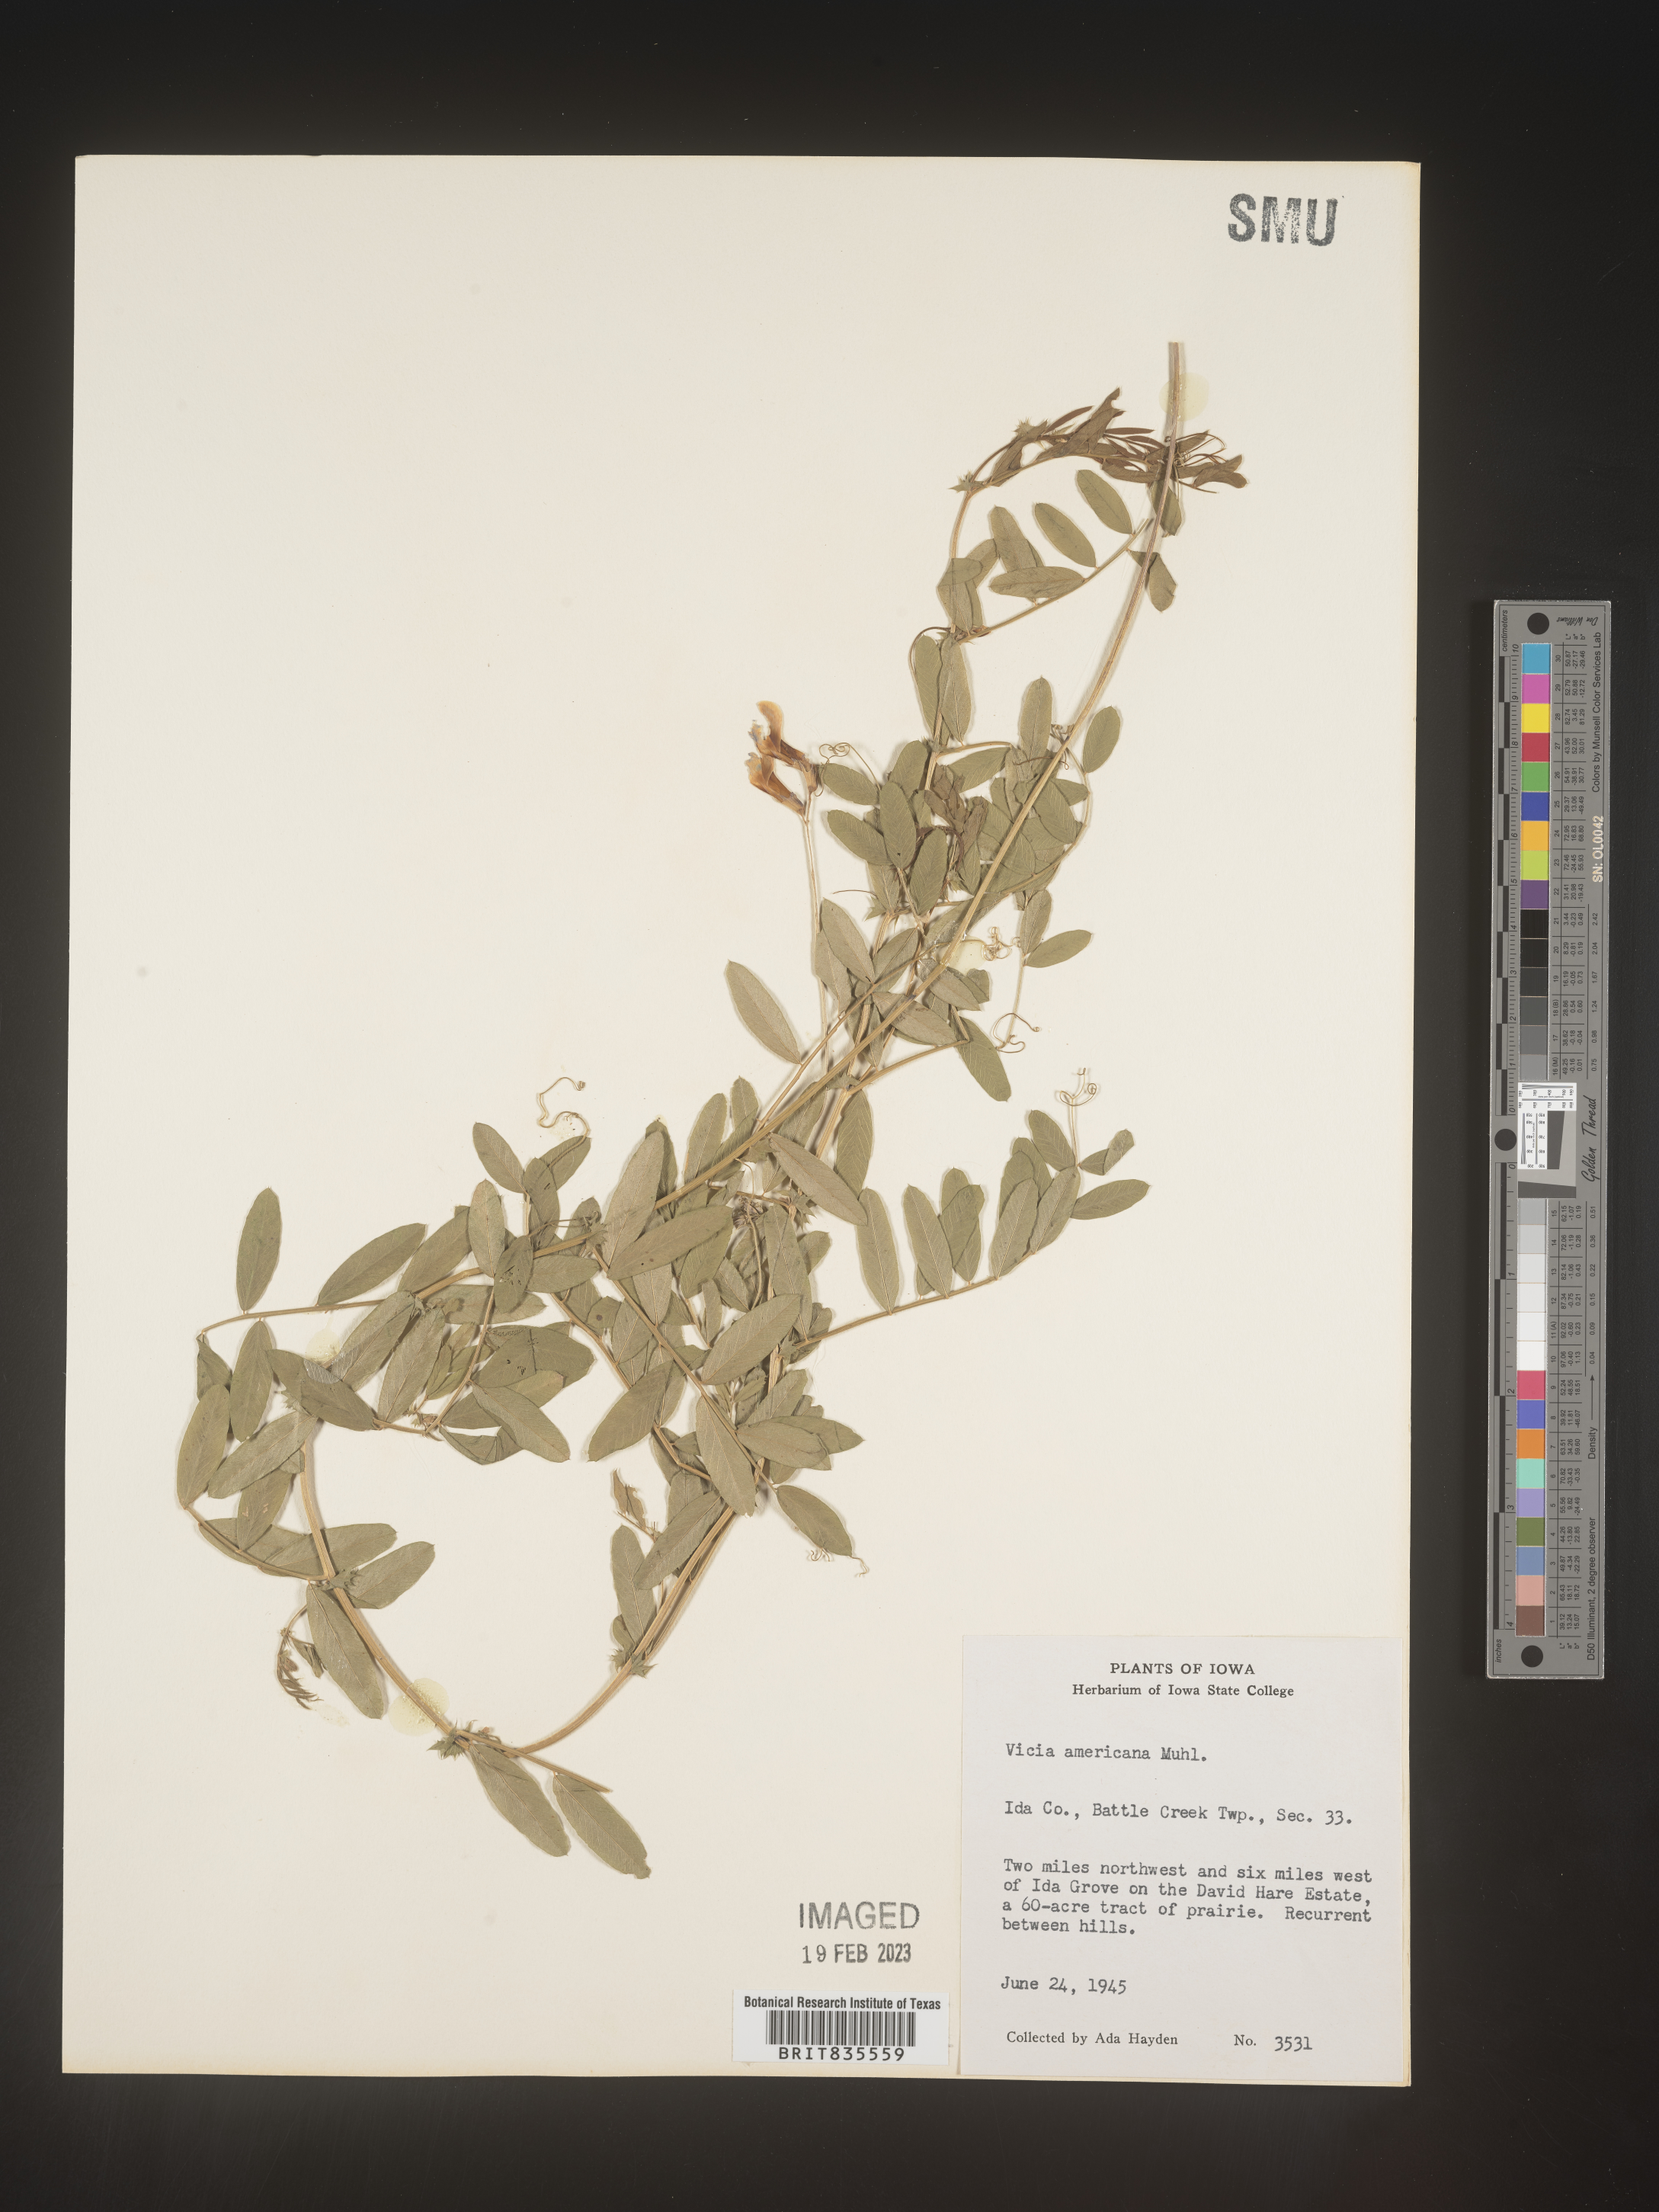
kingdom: Plantae
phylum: Tracheophyta
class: Magnoliopsida
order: Fabales
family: Fabaceae
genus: Vicia
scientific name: Vicia americana
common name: American vetch
